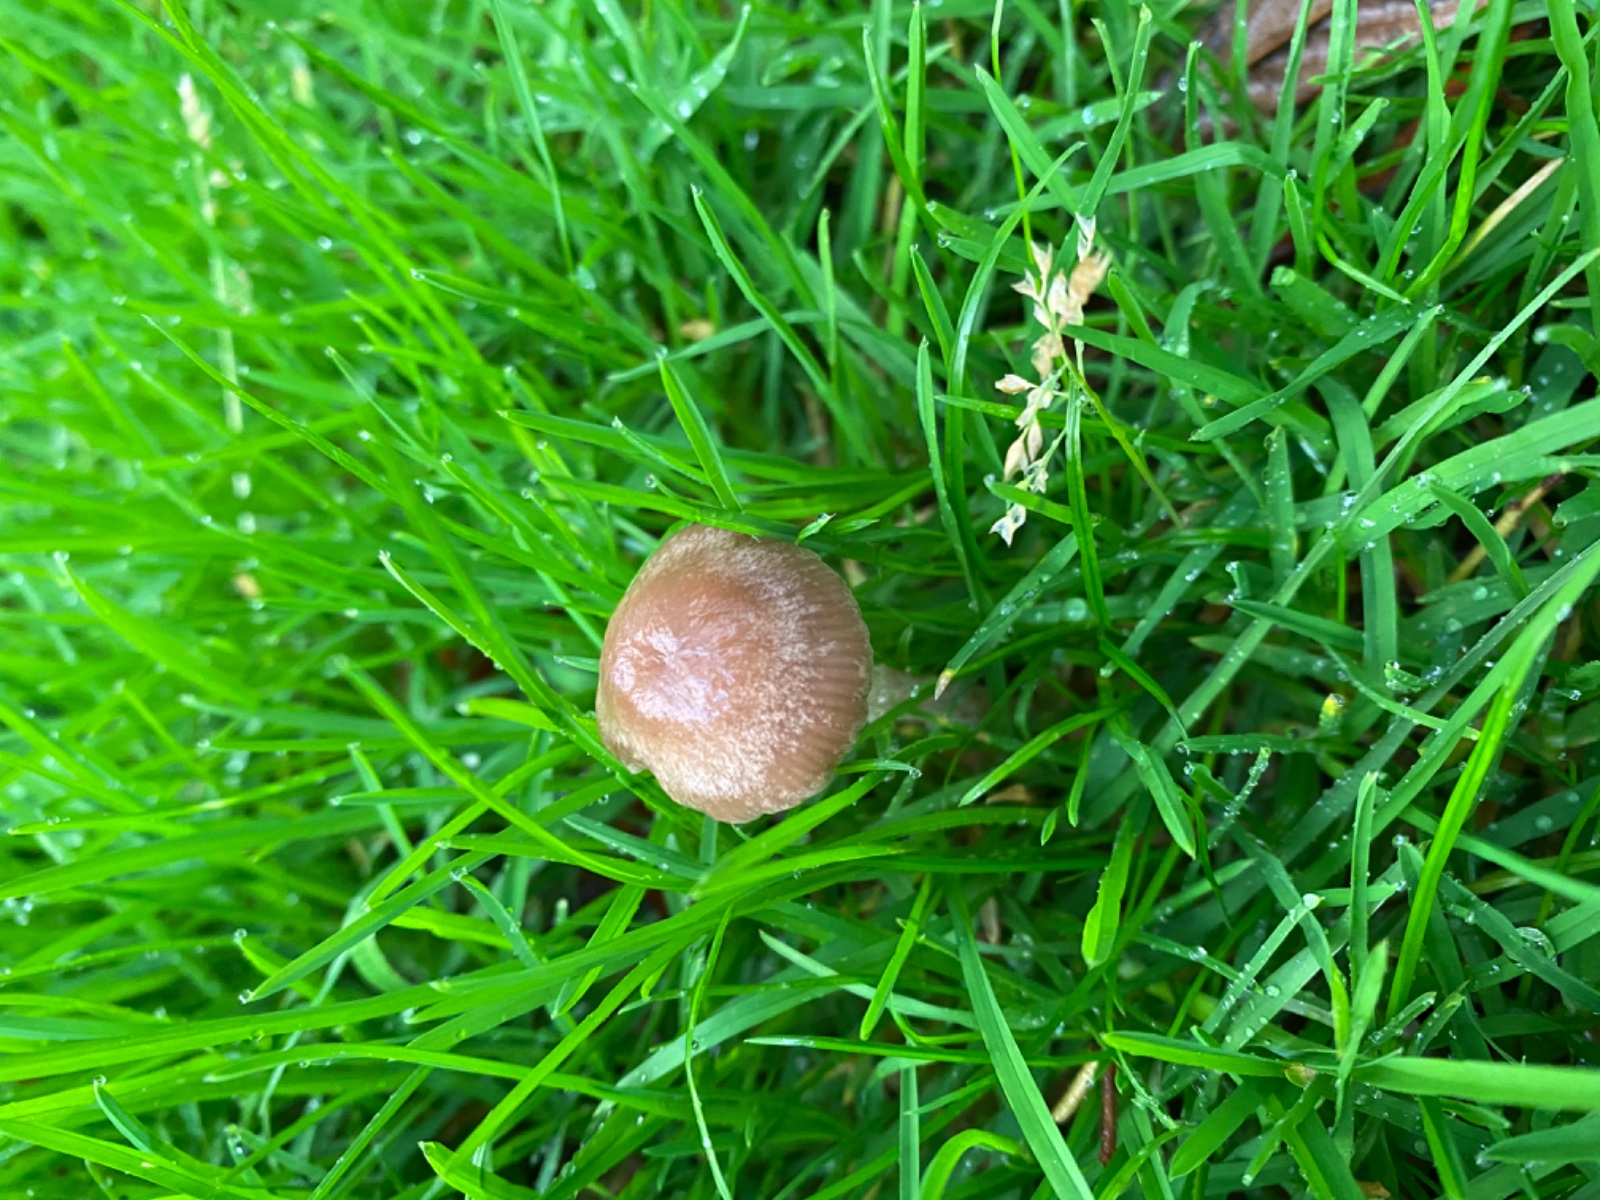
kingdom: Fungi
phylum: Basidiomycota
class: Agaricomycetes
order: Agaricales
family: Bolbitiaceae
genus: Panaeolina
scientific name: Panaeolina foenisecii
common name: høslætsvamp
